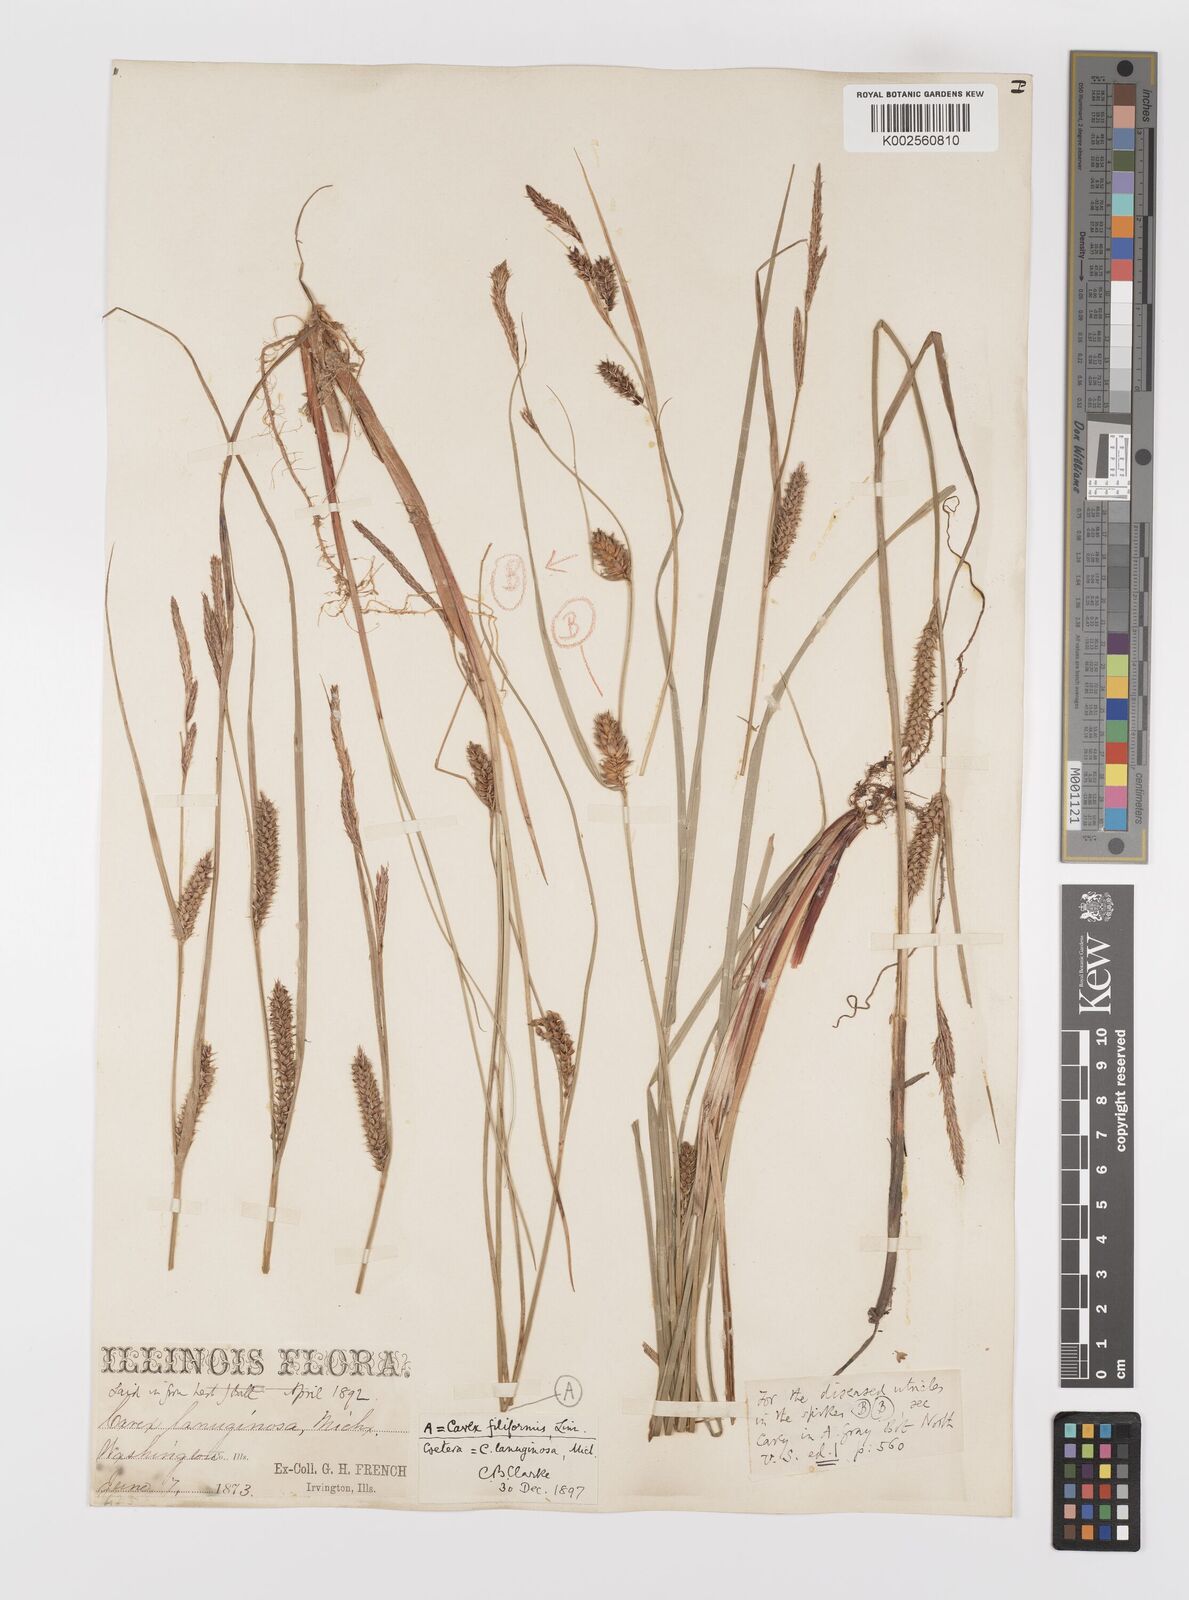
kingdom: Plantae
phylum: Tracheophyta
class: Liliopsida
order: Poales
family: Cyperaceae
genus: Carex
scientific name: Carex lasiocarpa
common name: Slender sedge
